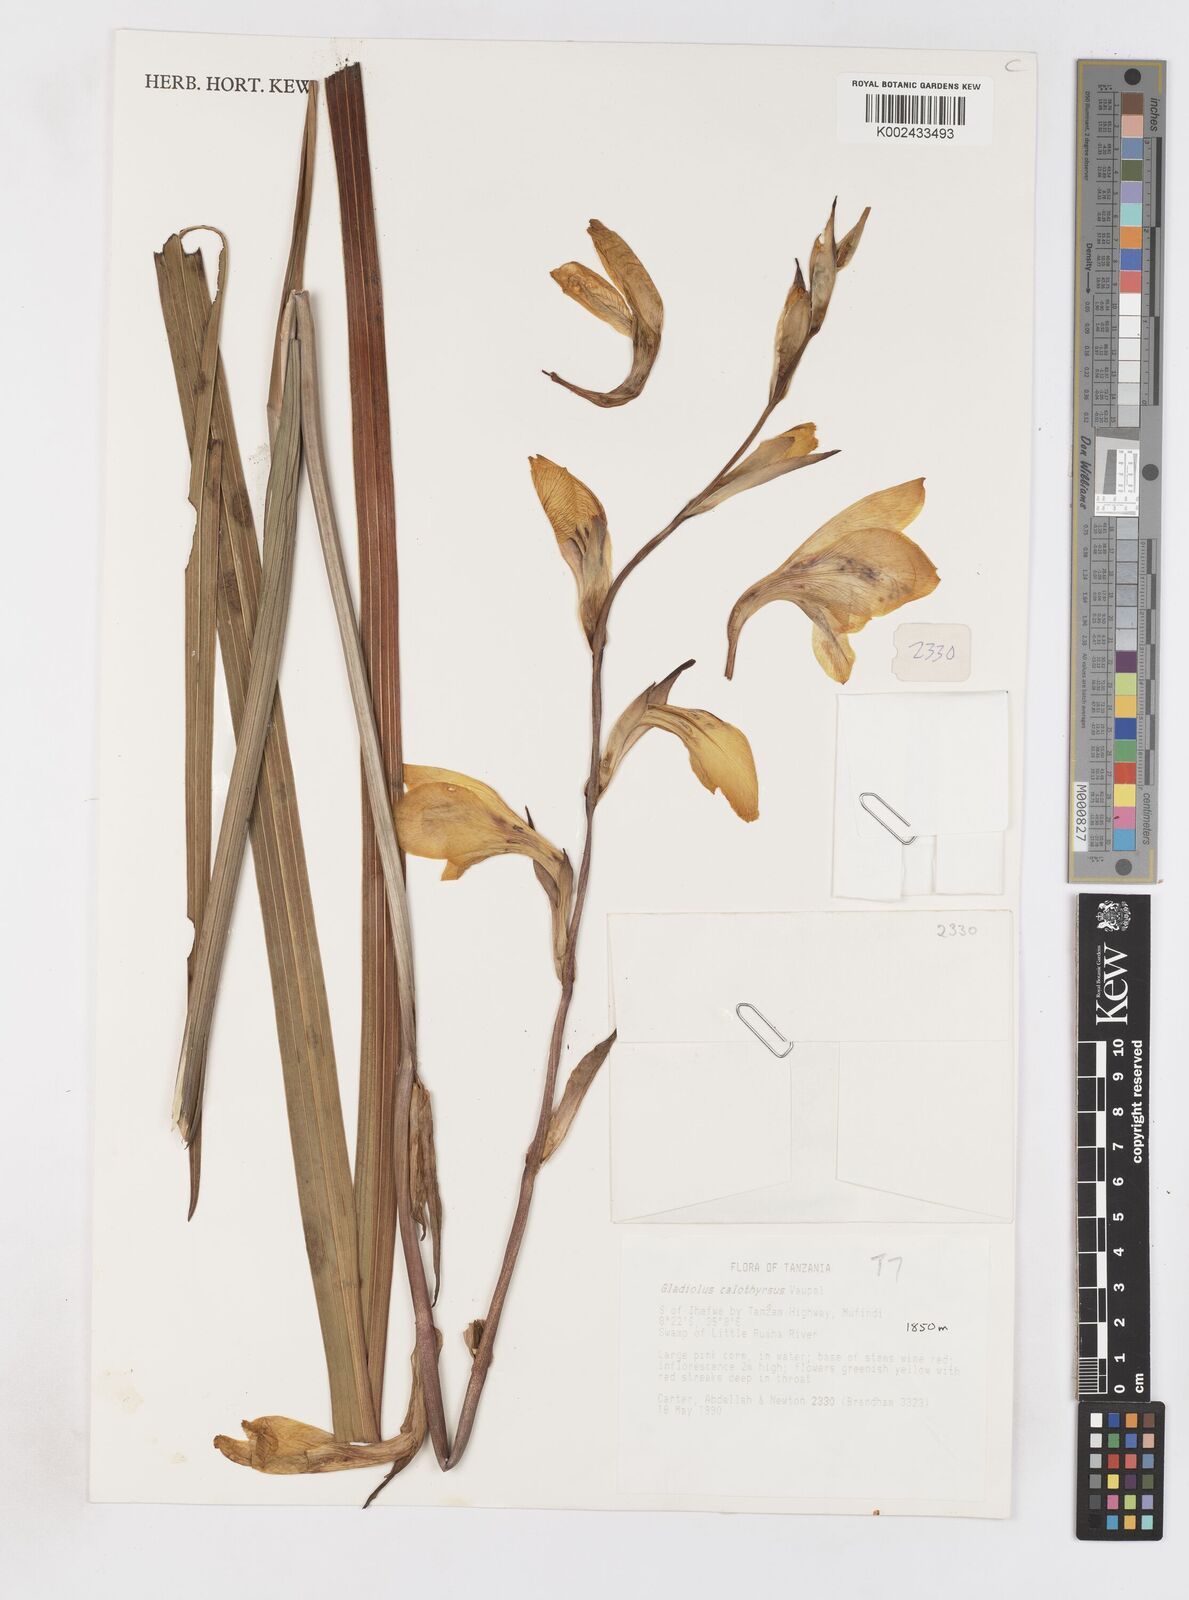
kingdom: Plantae
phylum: Tracheophyta
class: Liliopsida
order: Asparagales
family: Iridaceae
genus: Gladiolus
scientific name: Gladiolus dalenii
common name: Cornflag
